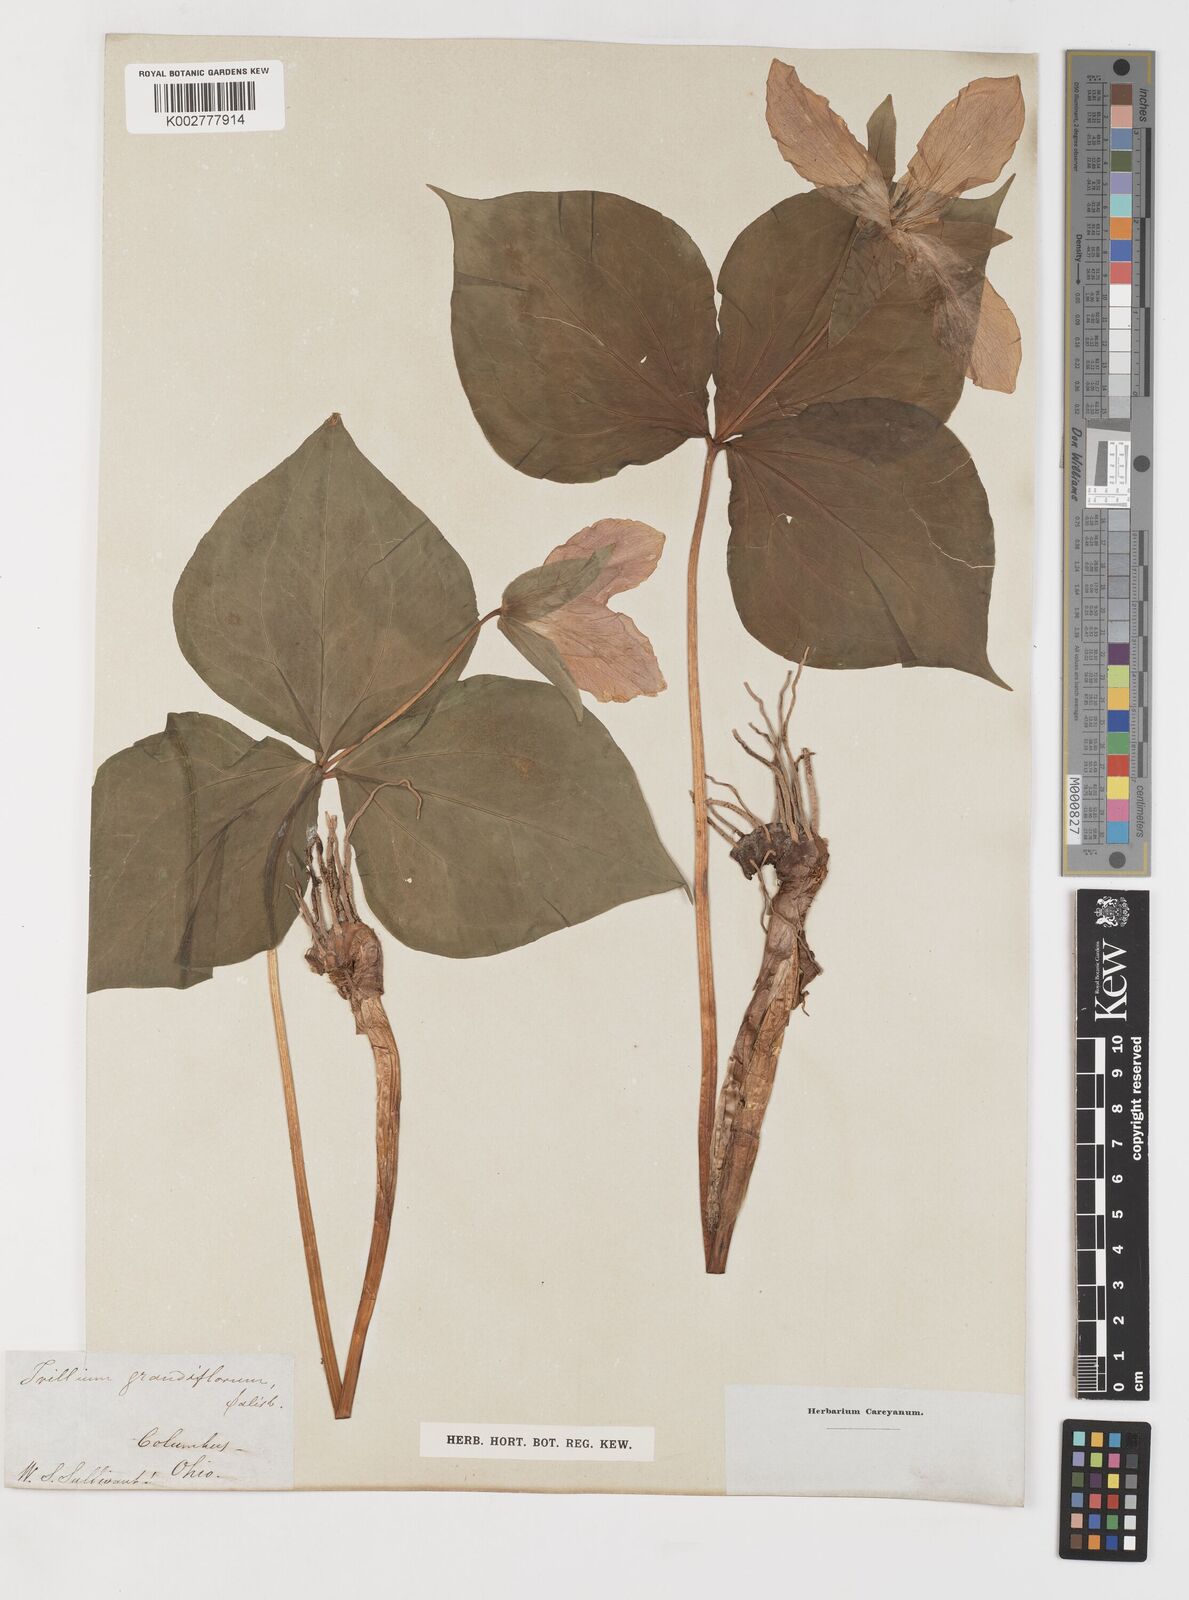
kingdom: Plantae
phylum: Tracheophyta
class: Liliopsida
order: Liliales
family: Melanthiaceae
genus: Trillium
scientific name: Trillium grandiflorum
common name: Great white trillium
